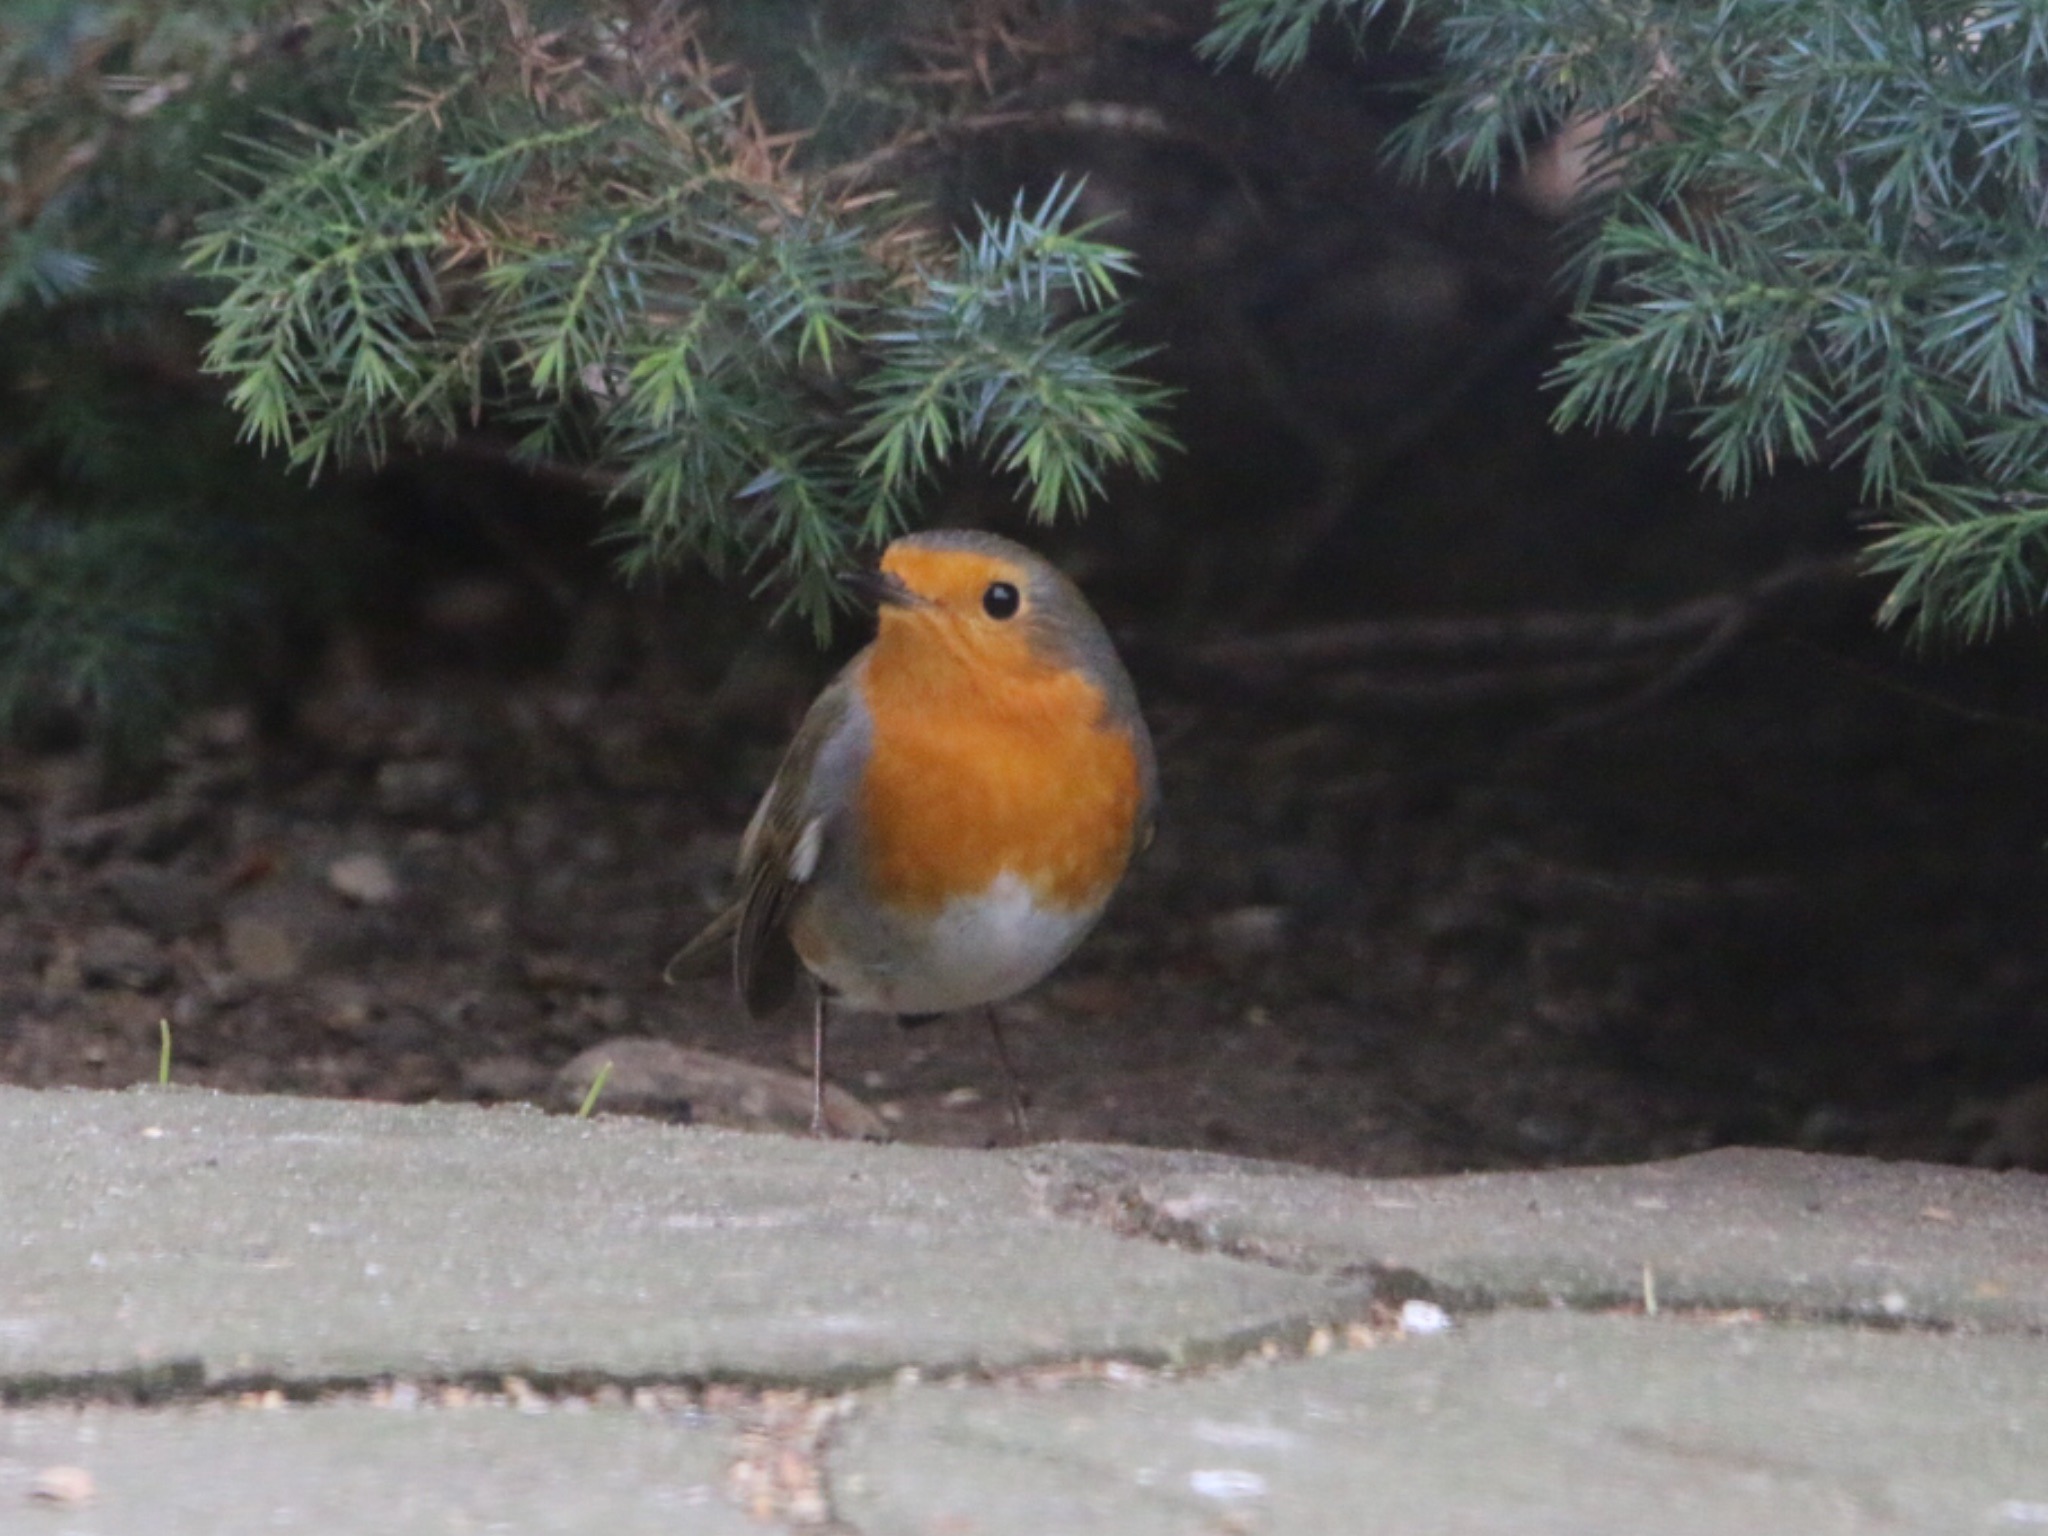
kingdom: Animalia
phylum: Chordata
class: Aves
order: Passeriformes
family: Muscicapidae
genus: Erithacus
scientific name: Erithacus rubecula
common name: Rødhals/rødkælk
